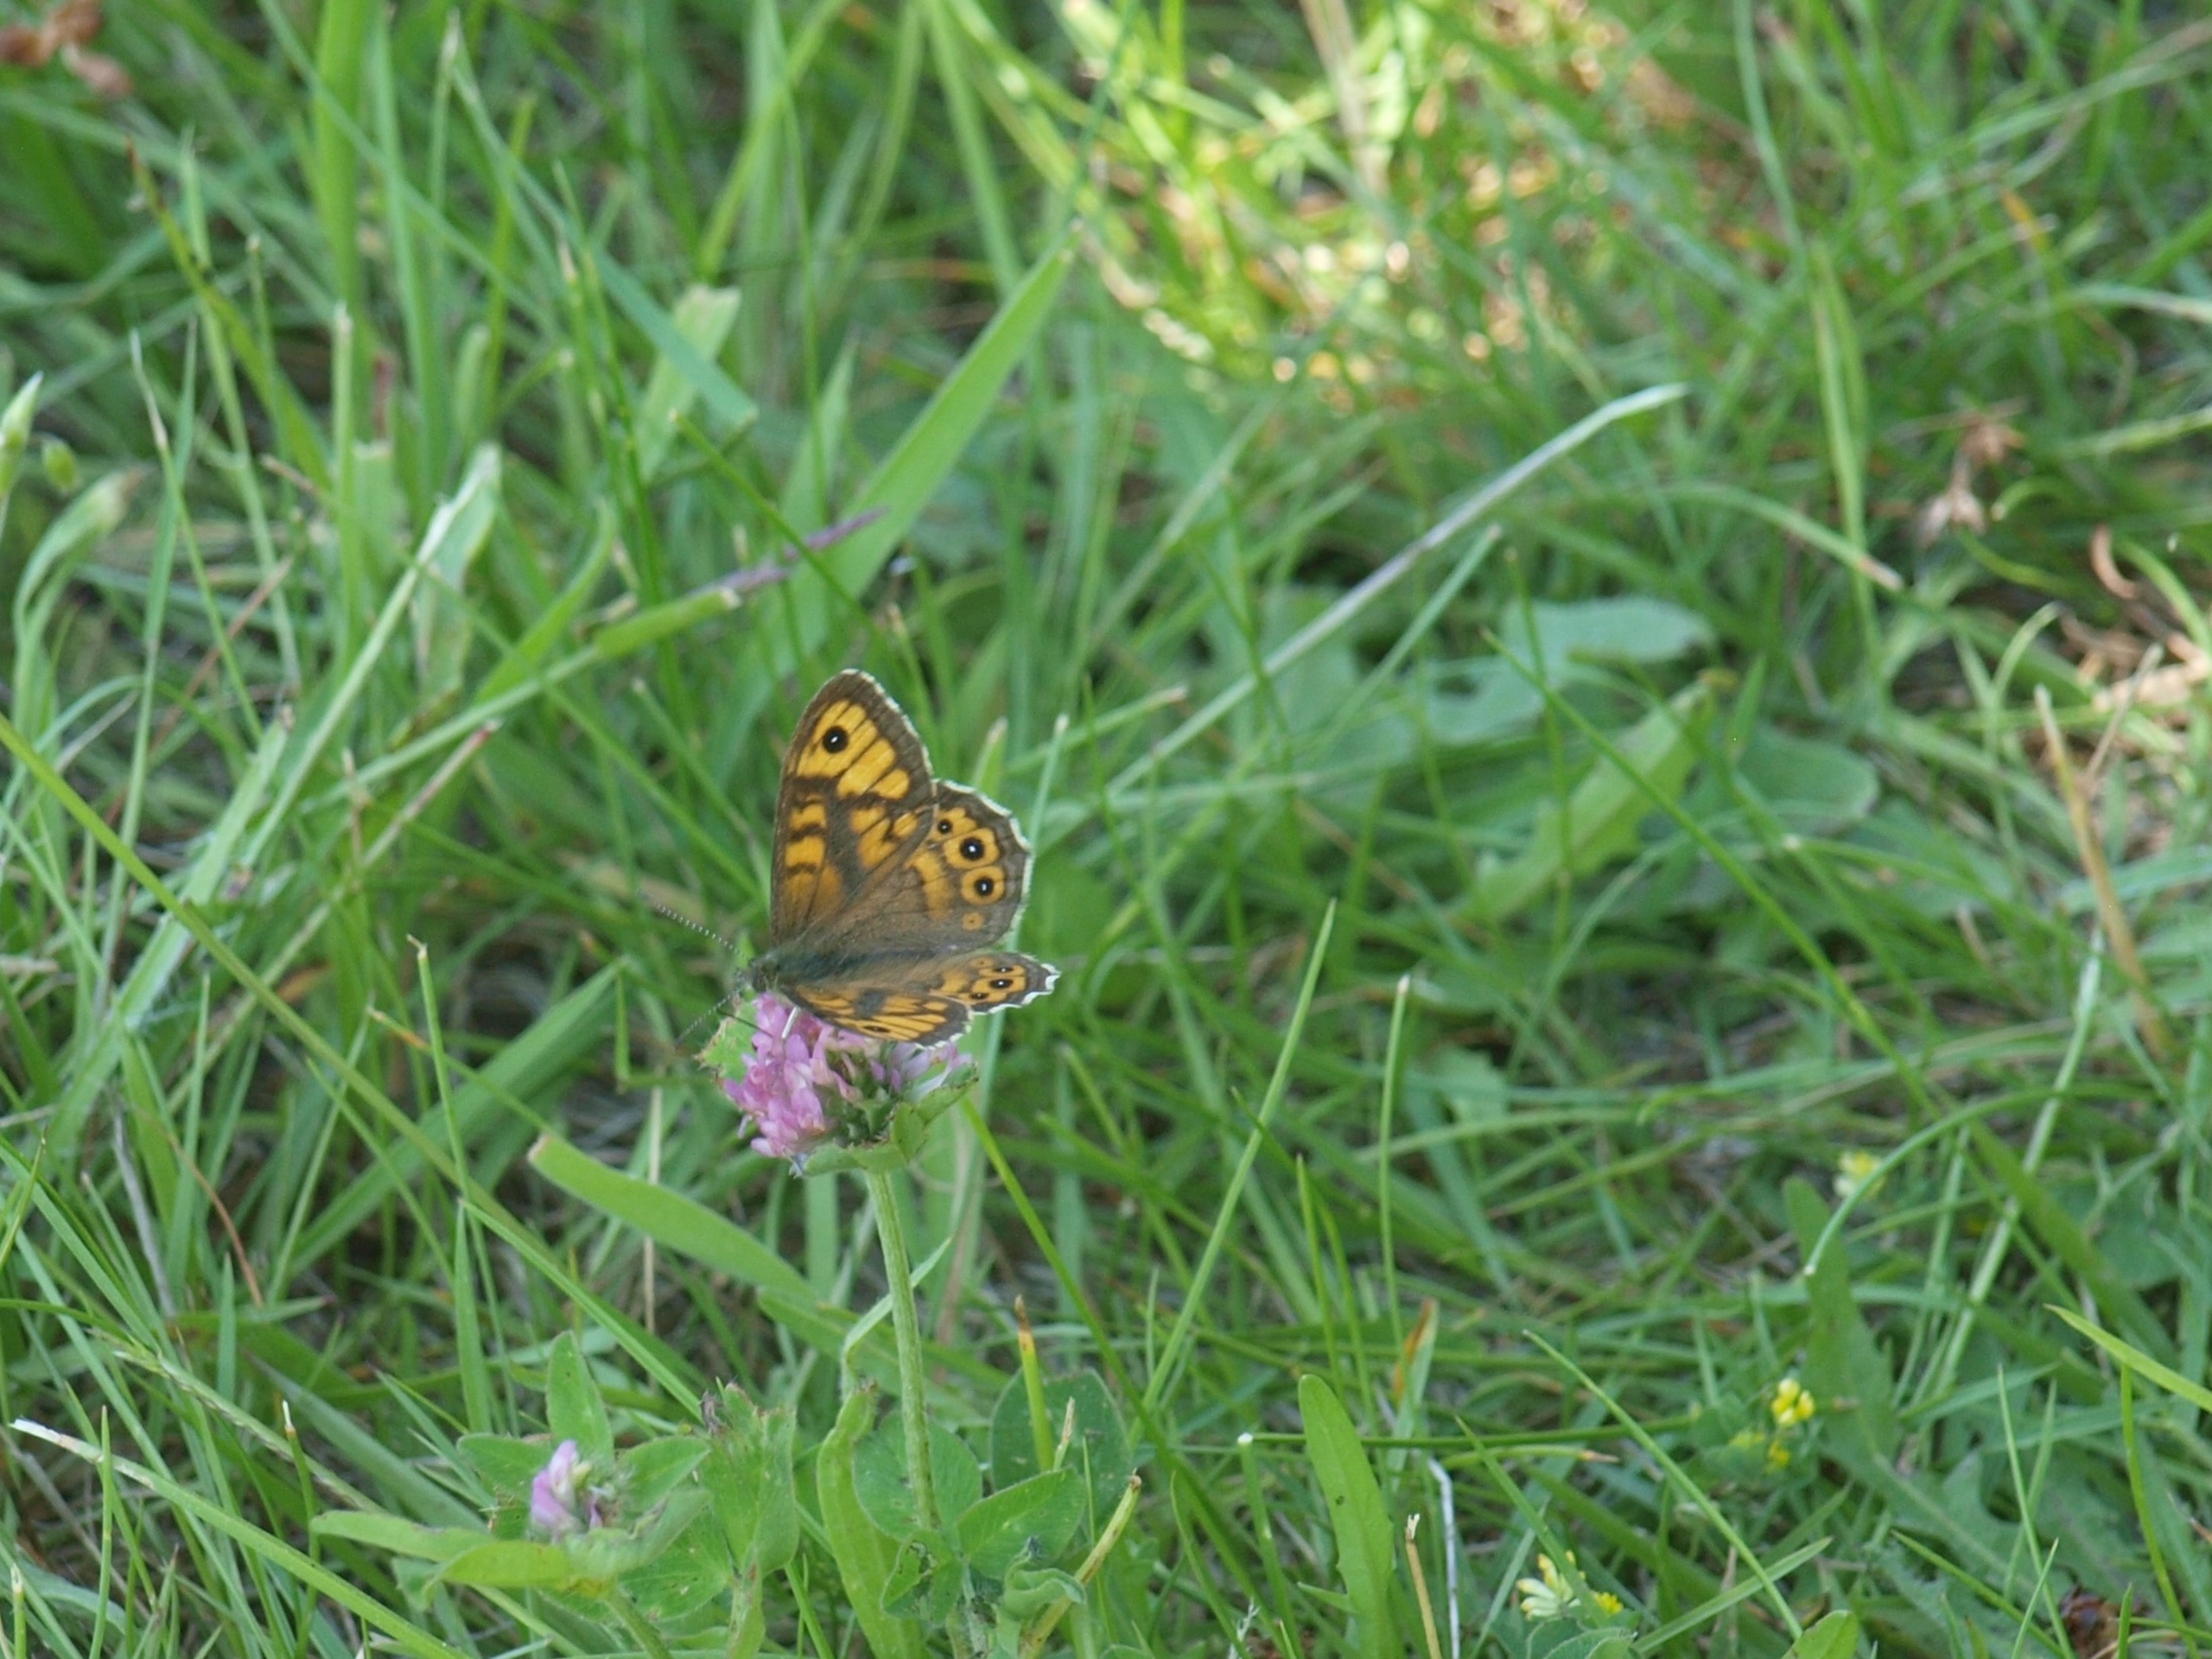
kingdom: Animalia
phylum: Arthropoda
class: Insecta
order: Lepidoptera
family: Nymphalidae
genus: Pararge
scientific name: Pararge Lasiommata megera
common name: Vejrandøje
